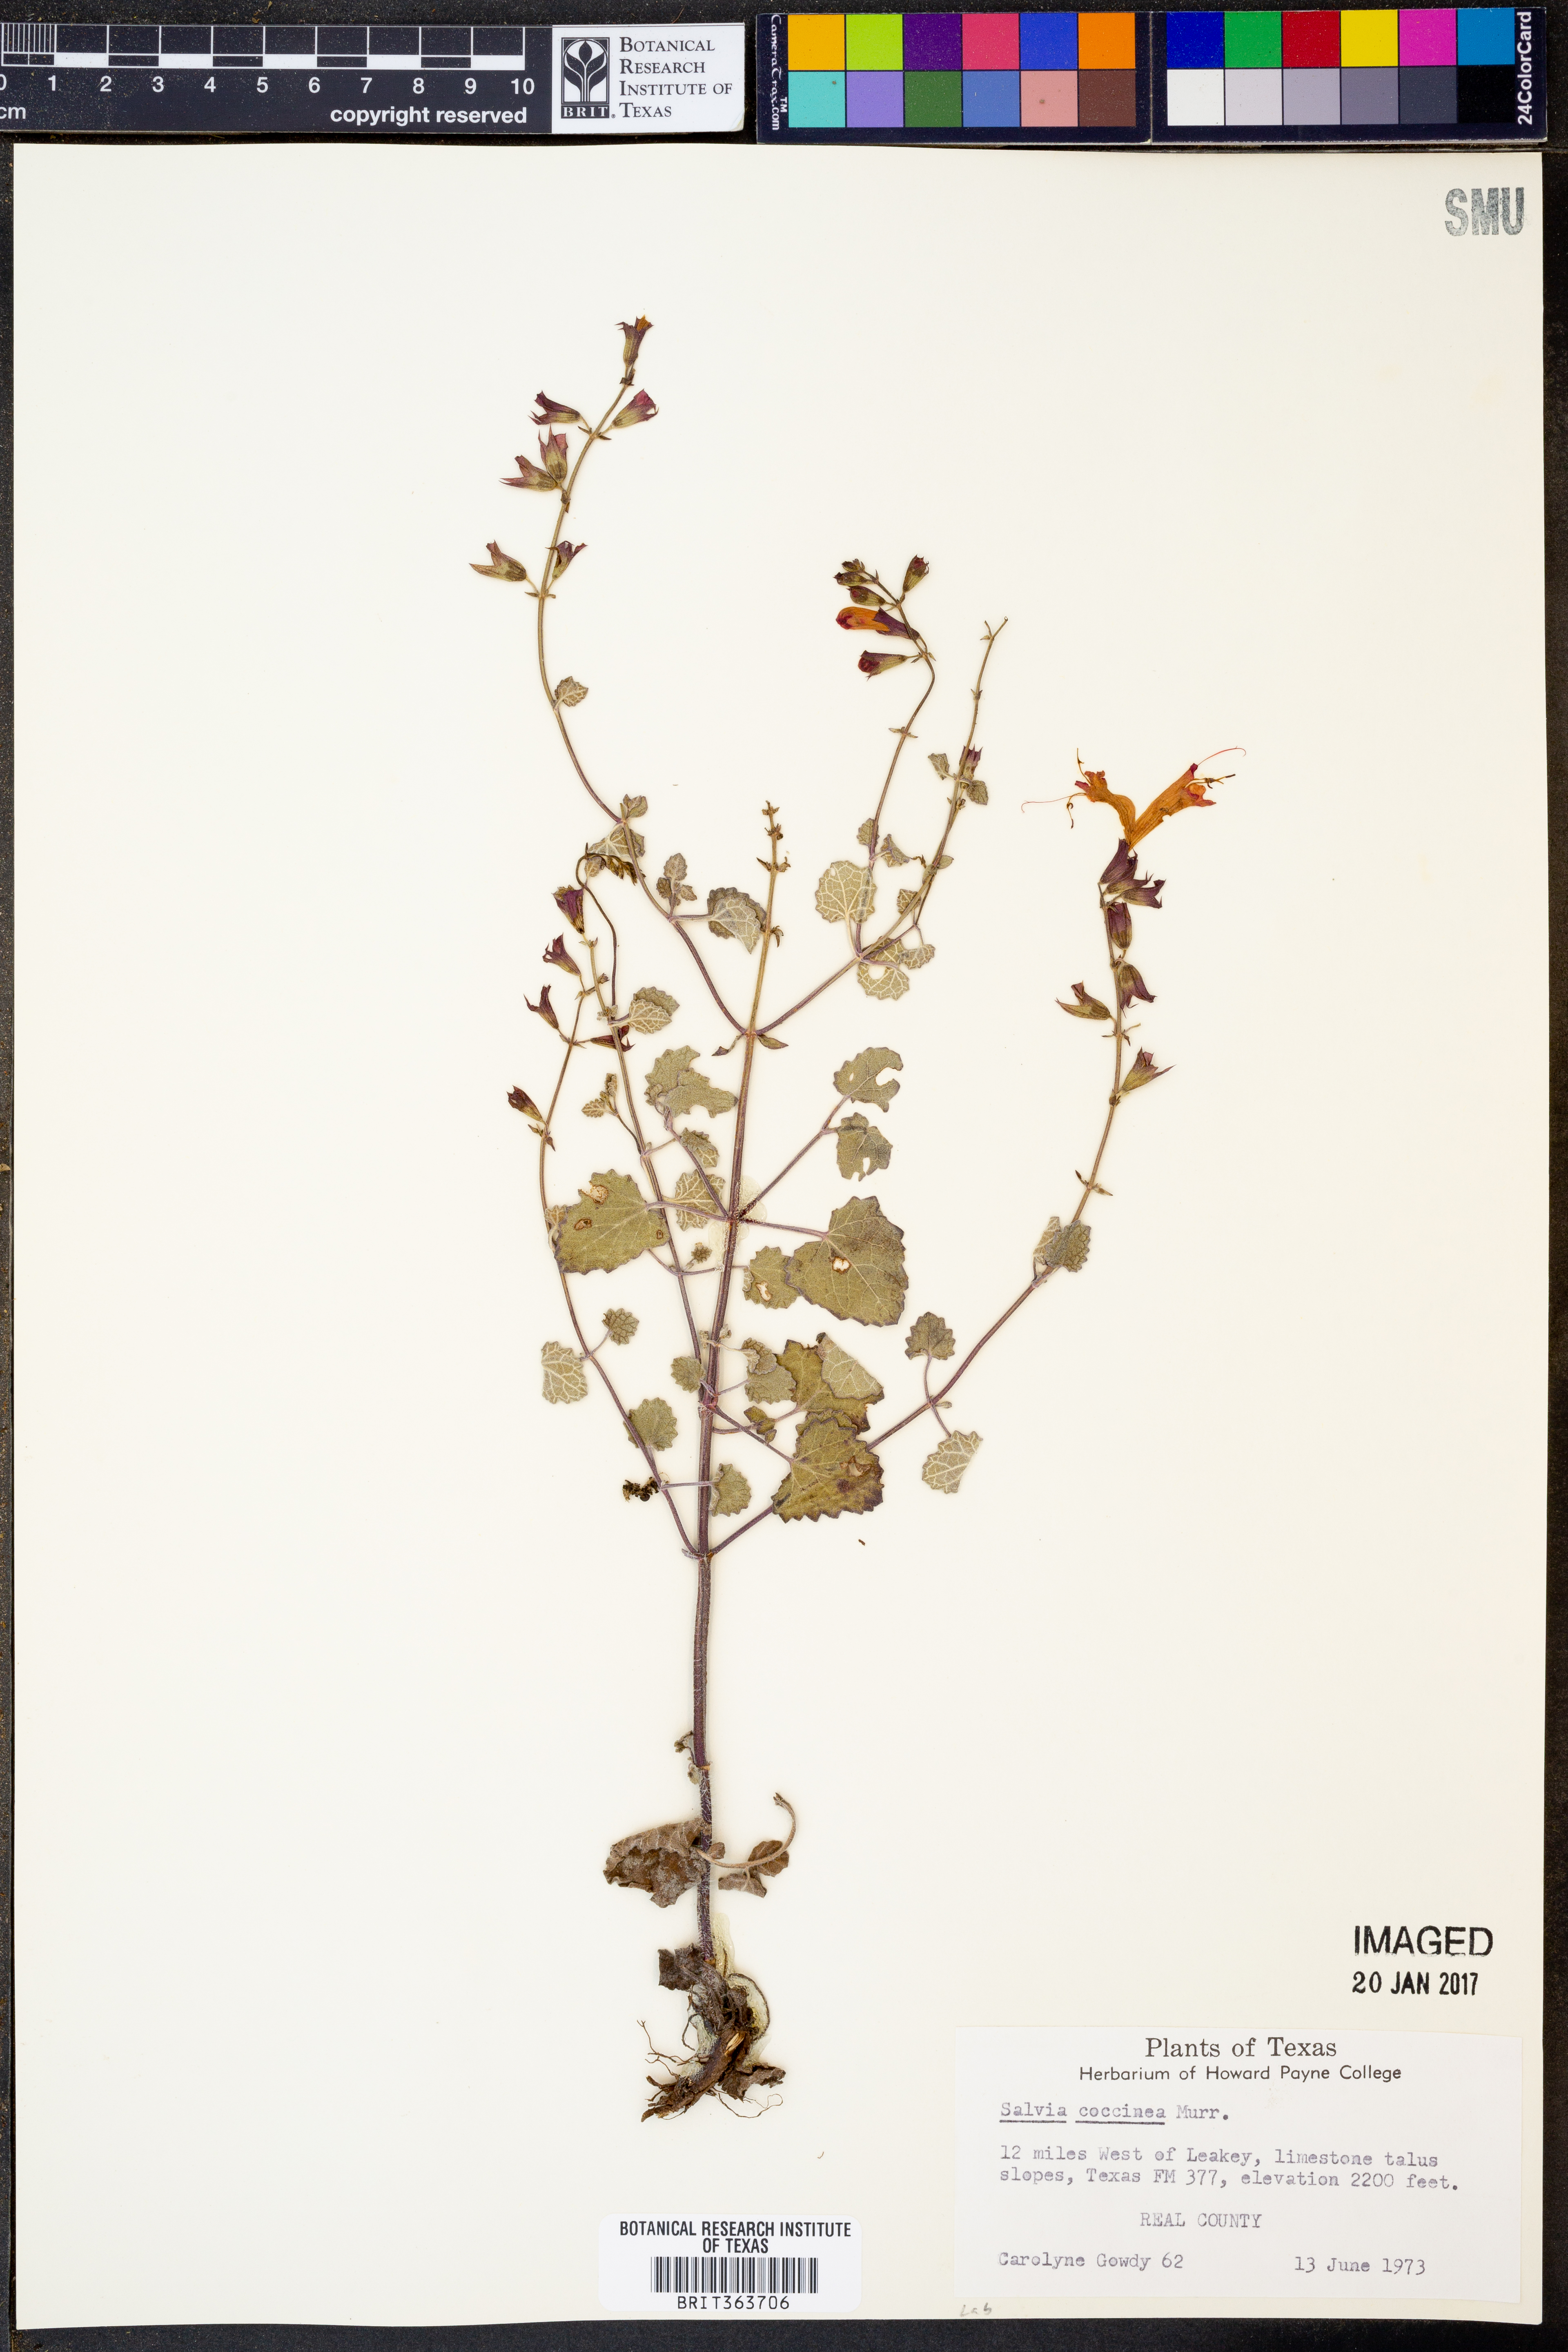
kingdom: Plantae
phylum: Tracheophyta
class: Magnoliopsida
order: Lamiales
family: Lamiaceae
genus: Salvia
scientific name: Salvia coccinea
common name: Blood sage
